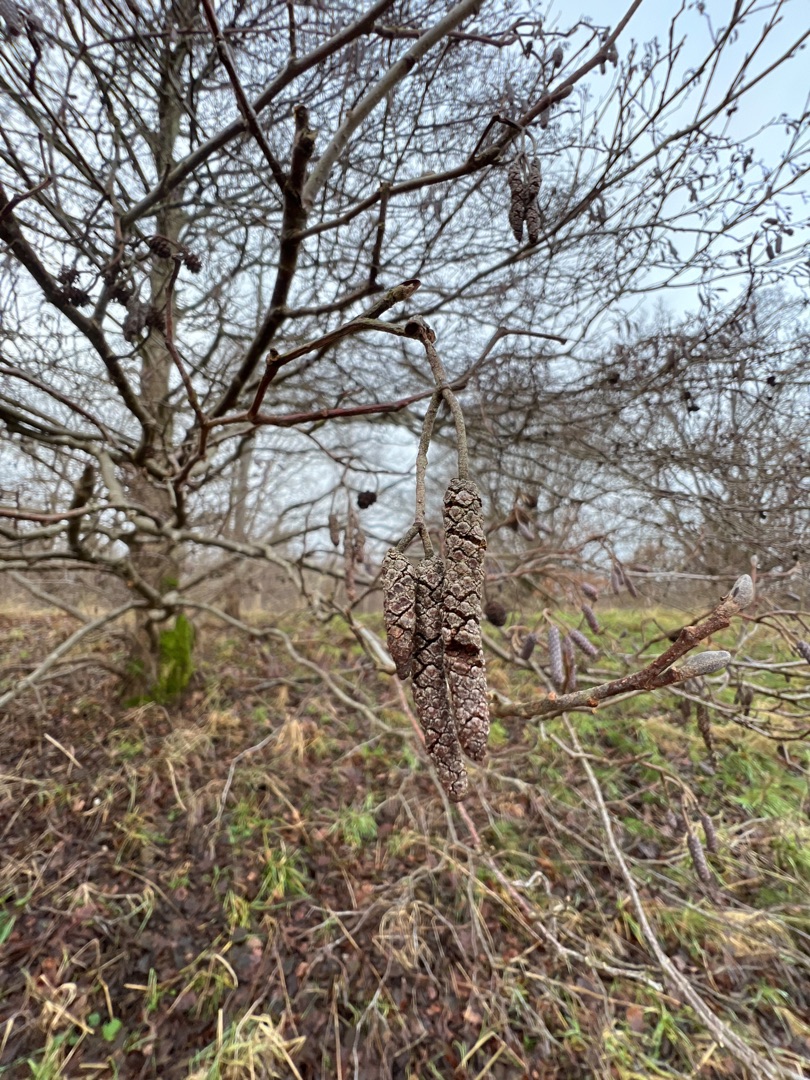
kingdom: Plantae
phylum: Tracheophyta
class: Magnoliopsida
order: Fagales
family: Betulaceae
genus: Alnus
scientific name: Alnus glutinosa
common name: Rød-el
